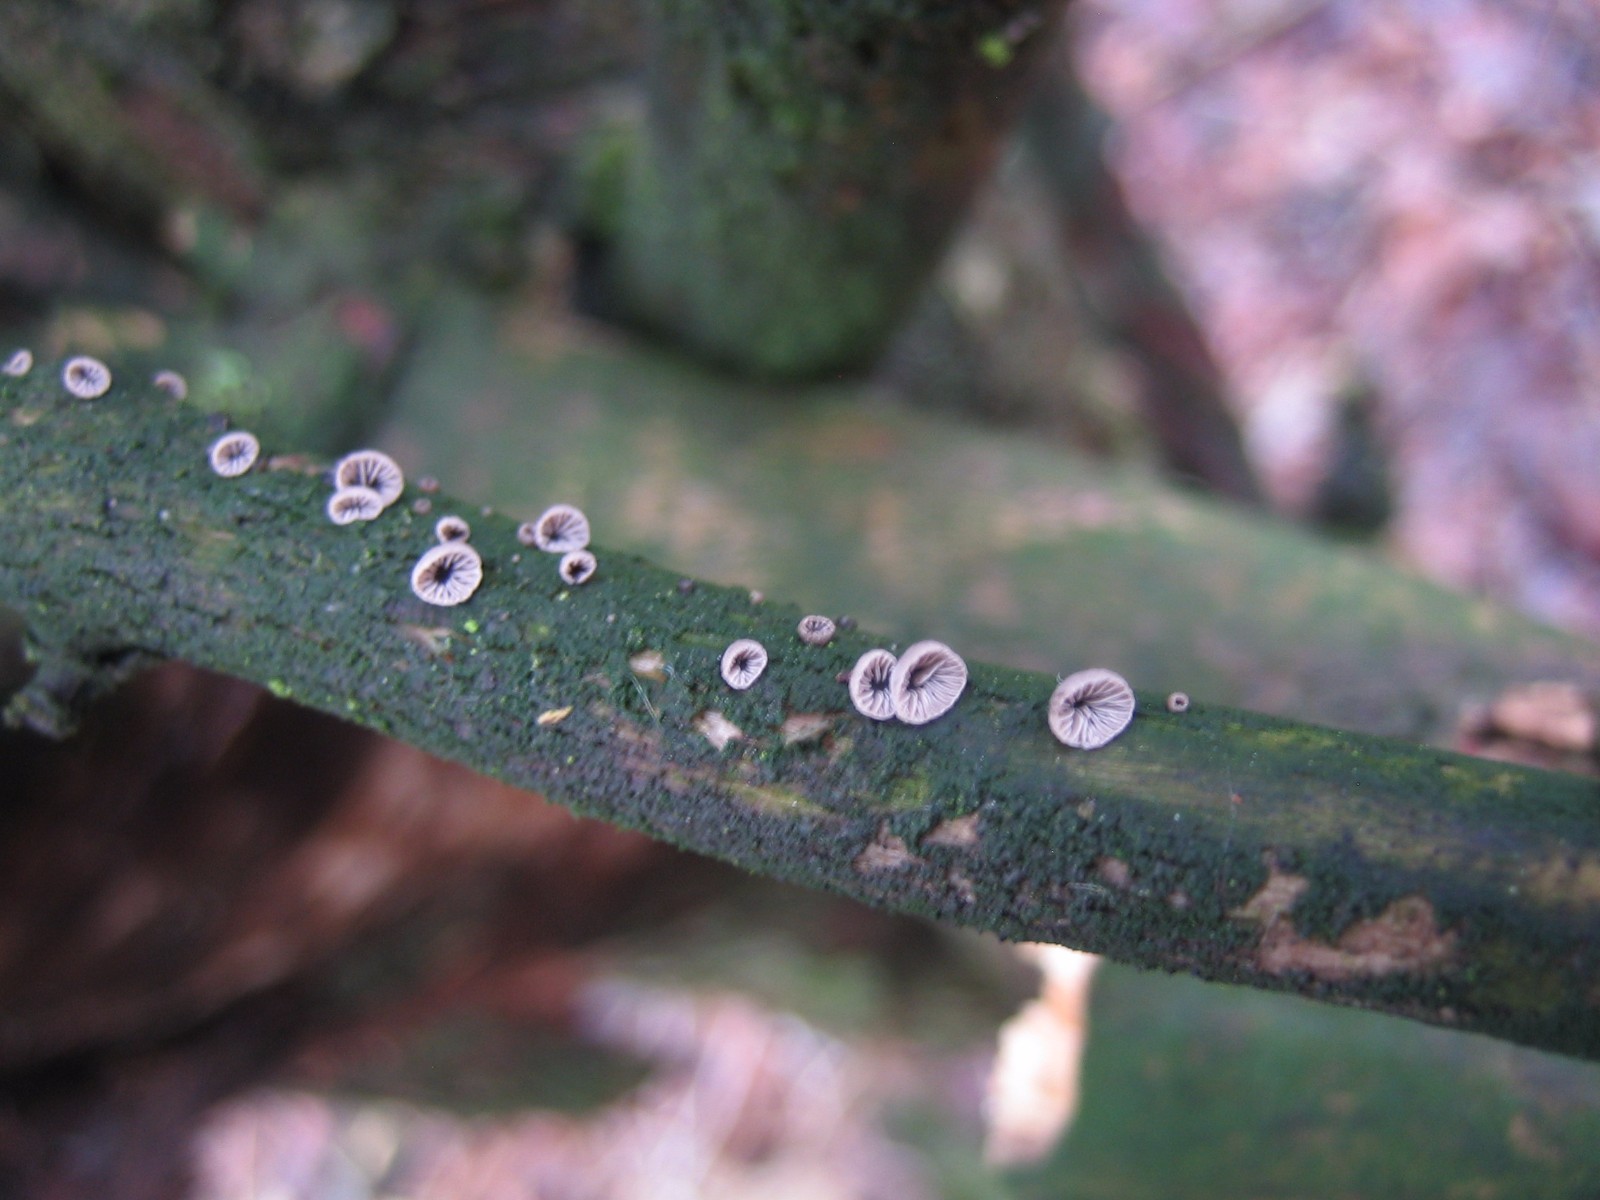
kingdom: Fungi
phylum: Basidiomycota
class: Agaricomycetes
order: Agaricales
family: Pleurotaceae
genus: Resupinatus
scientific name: Resupinatus trichotis
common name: mørkfiltet barkhat
